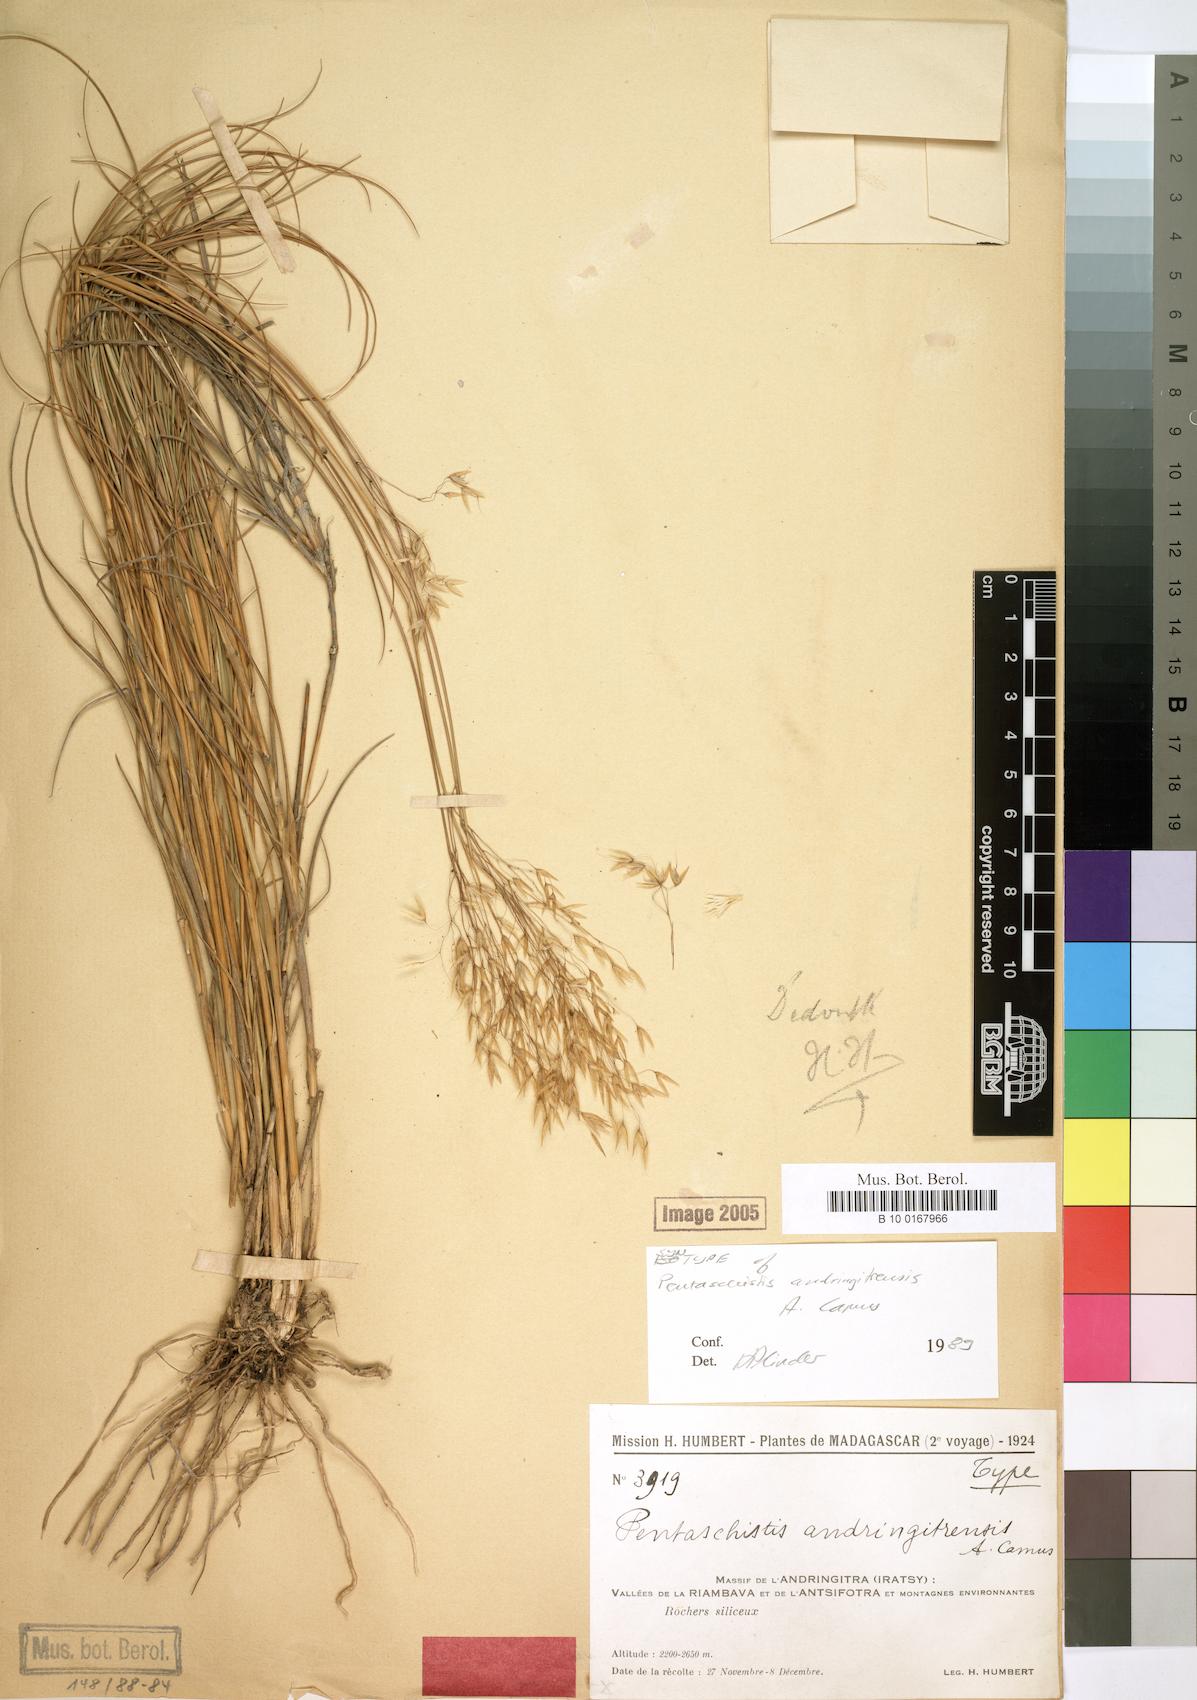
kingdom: Plantae
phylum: Tracheophyta
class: Liliopsida
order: Poales
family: Poaceae
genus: Pentameris
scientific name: Pentameris andringitrensis
